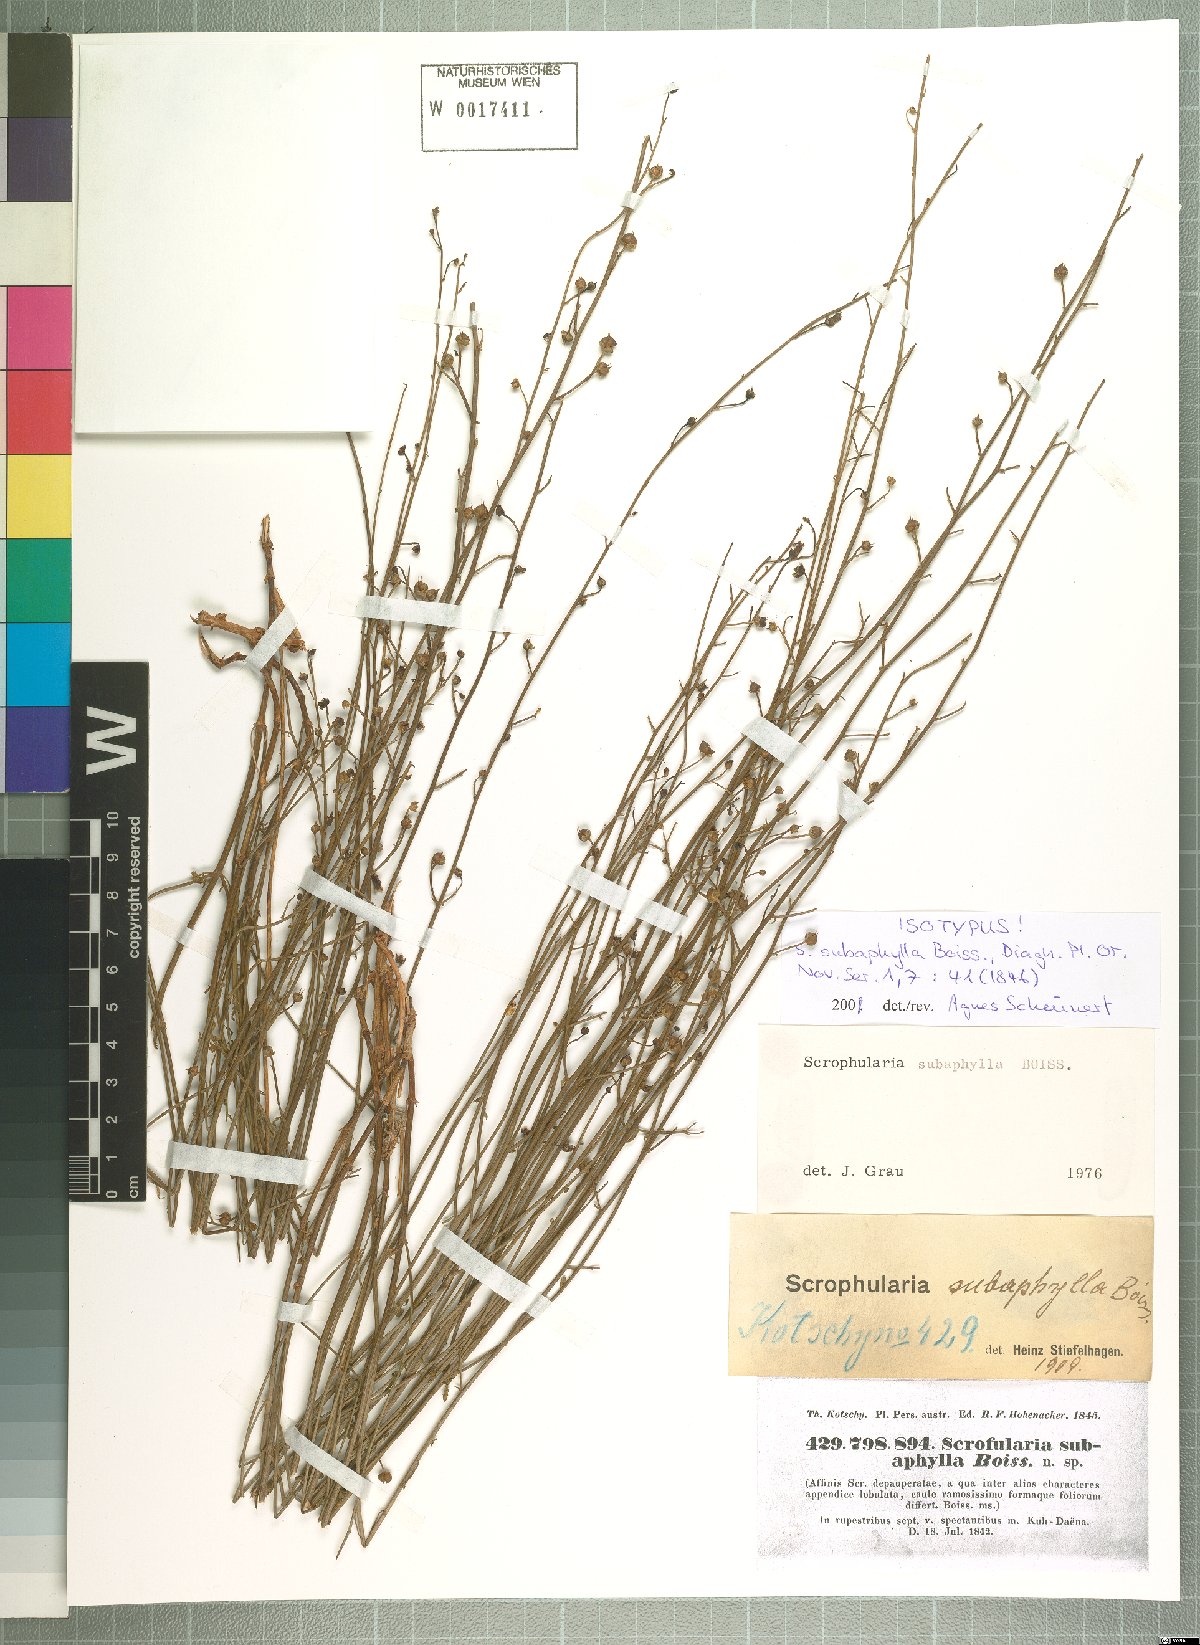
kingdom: Plantae
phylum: Tracheophyta
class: Magnoliopsida
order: Lamiales
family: Scrophulariaceae
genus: Scrophularia
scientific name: Scrophularia subaphylla
